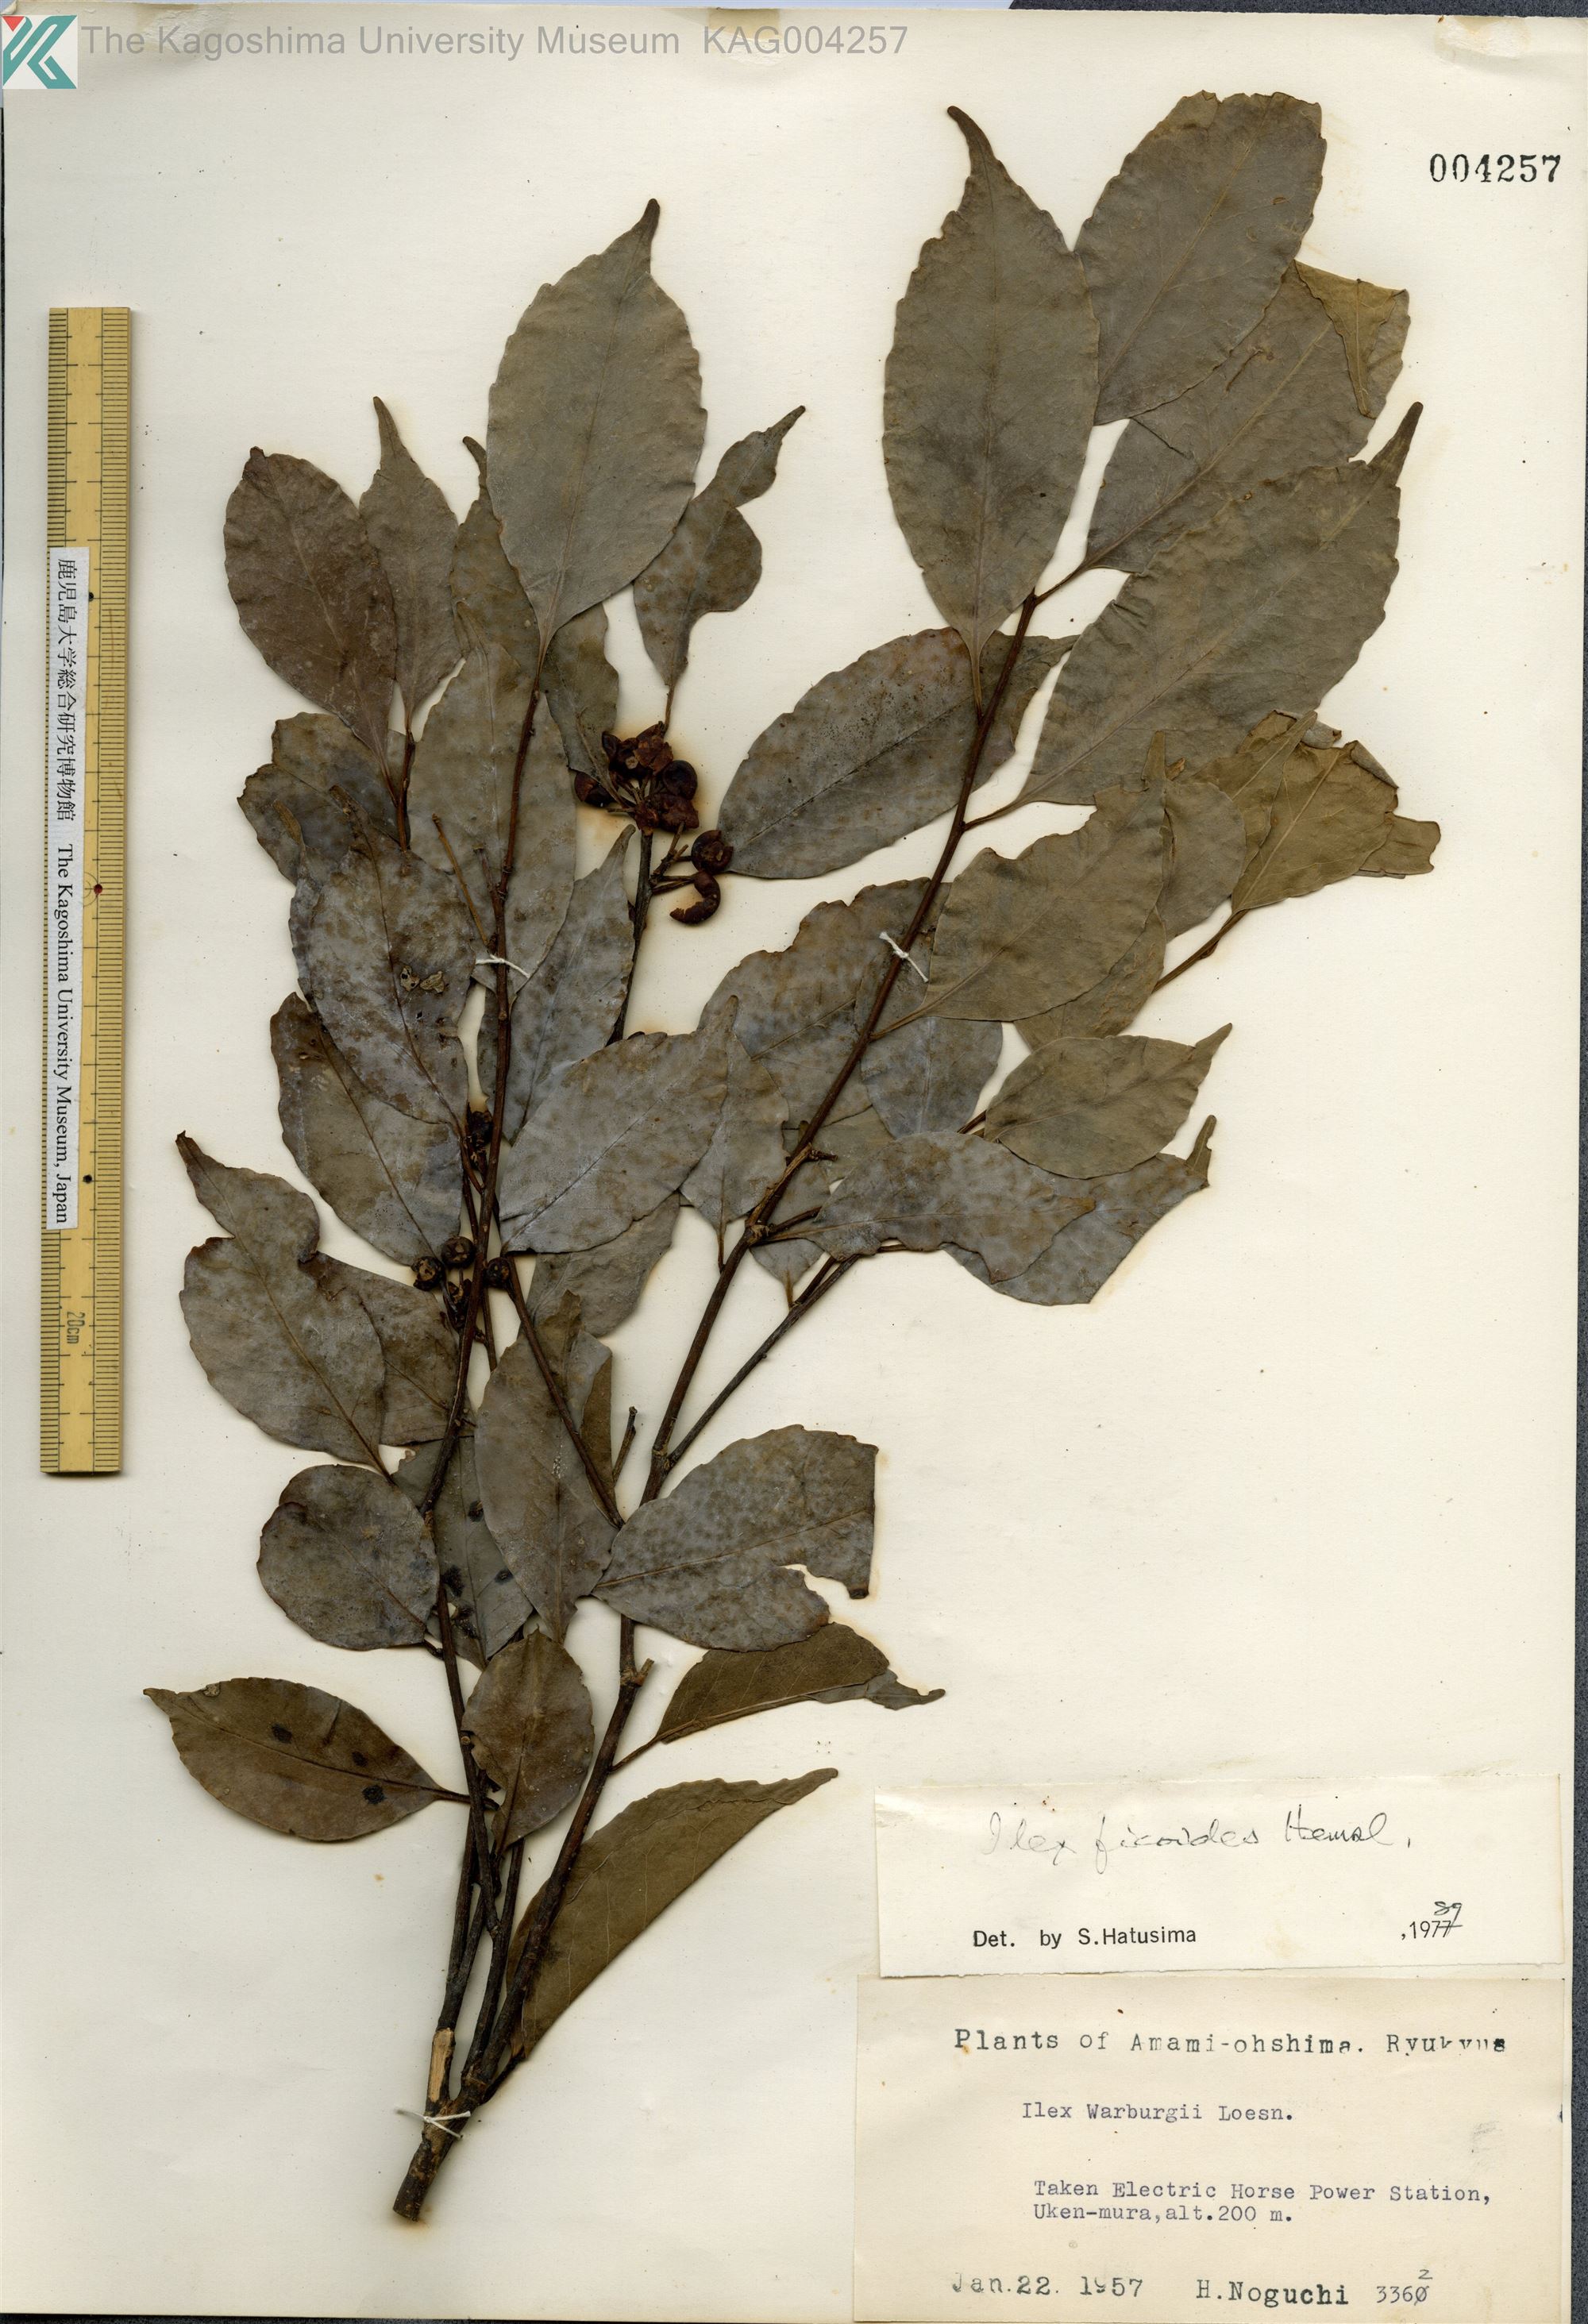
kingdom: Plantae
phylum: Tracheophyta
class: Magnoliopsida
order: Aquifoliales
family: Aquifoliaceae
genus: Ilex
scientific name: Ilex warburgii
